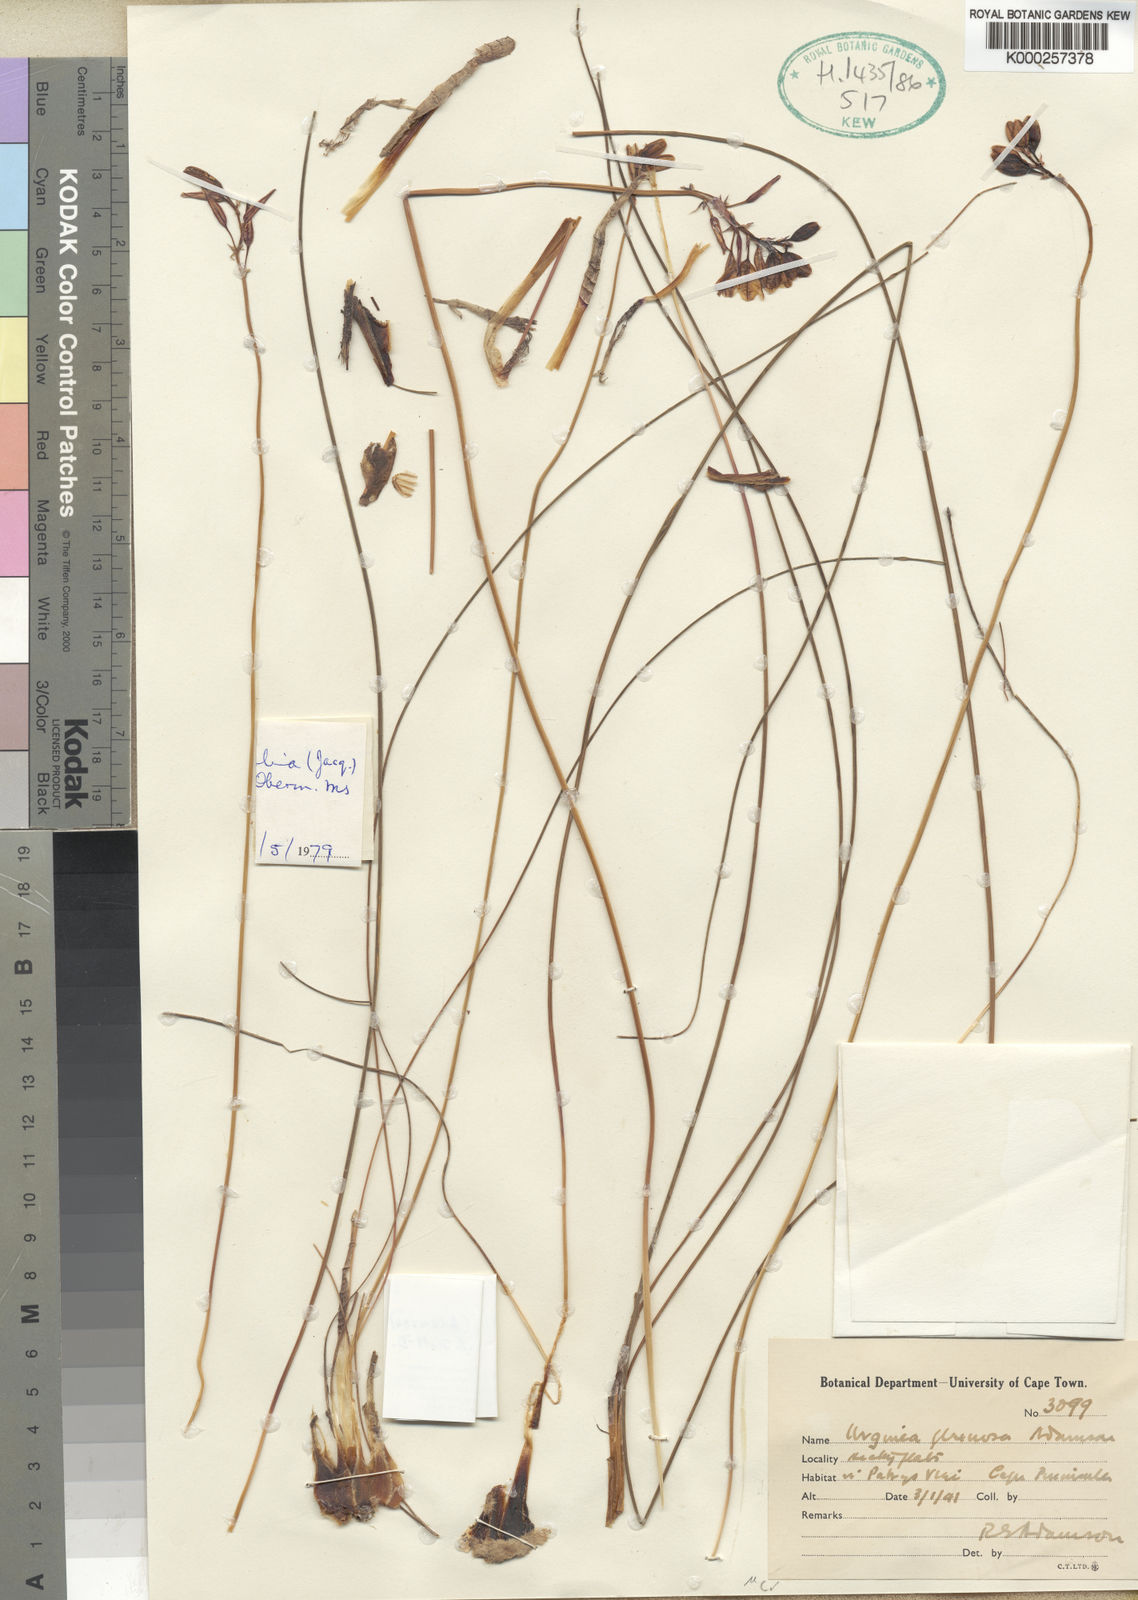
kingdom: Plantae
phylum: Tracheophyta
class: Liliopsida
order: Asparagales
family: Asparagaceae
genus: Drimia
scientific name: Drimia
